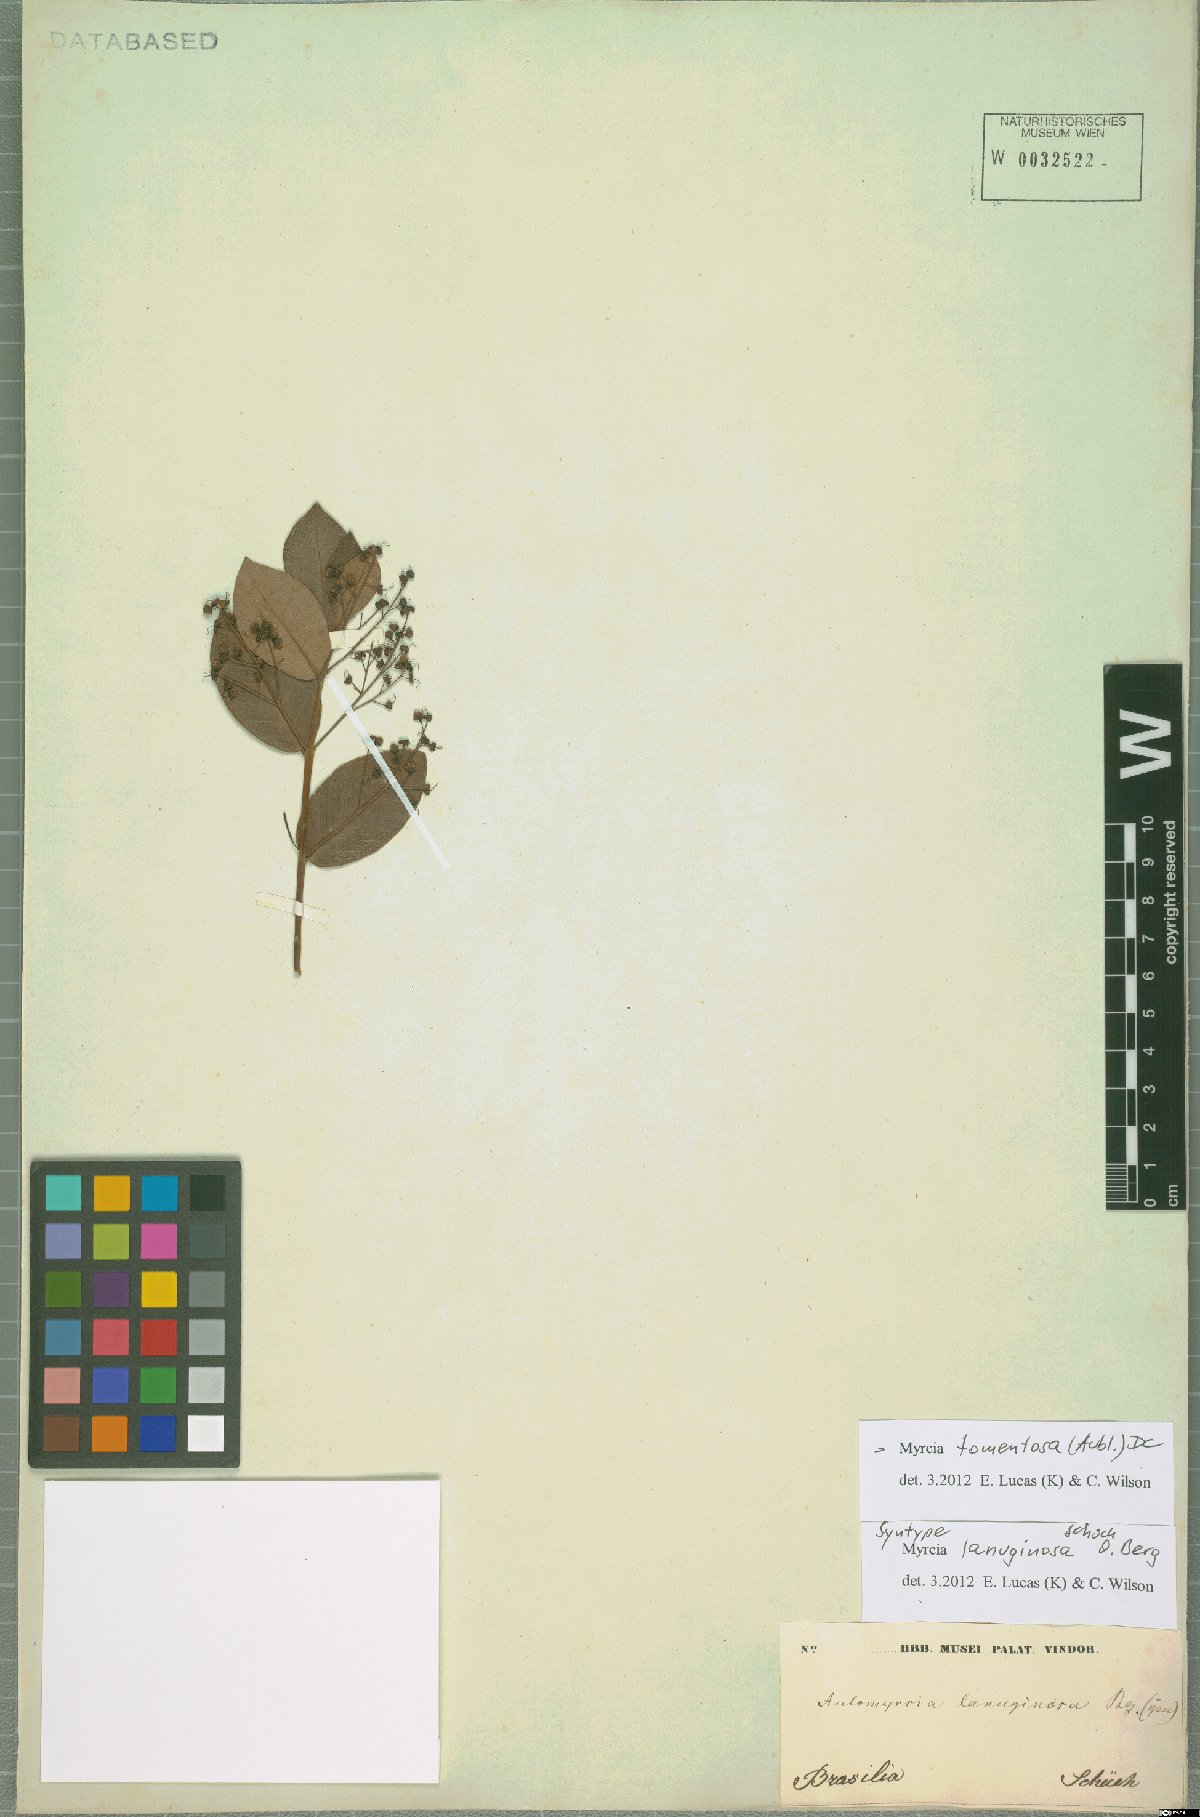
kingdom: Plantae
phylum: Tracheophyta
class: Magnoliopsida
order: Myrtales
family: Myrtaceae
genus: Myrcia
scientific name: Myrcia tomentosa
